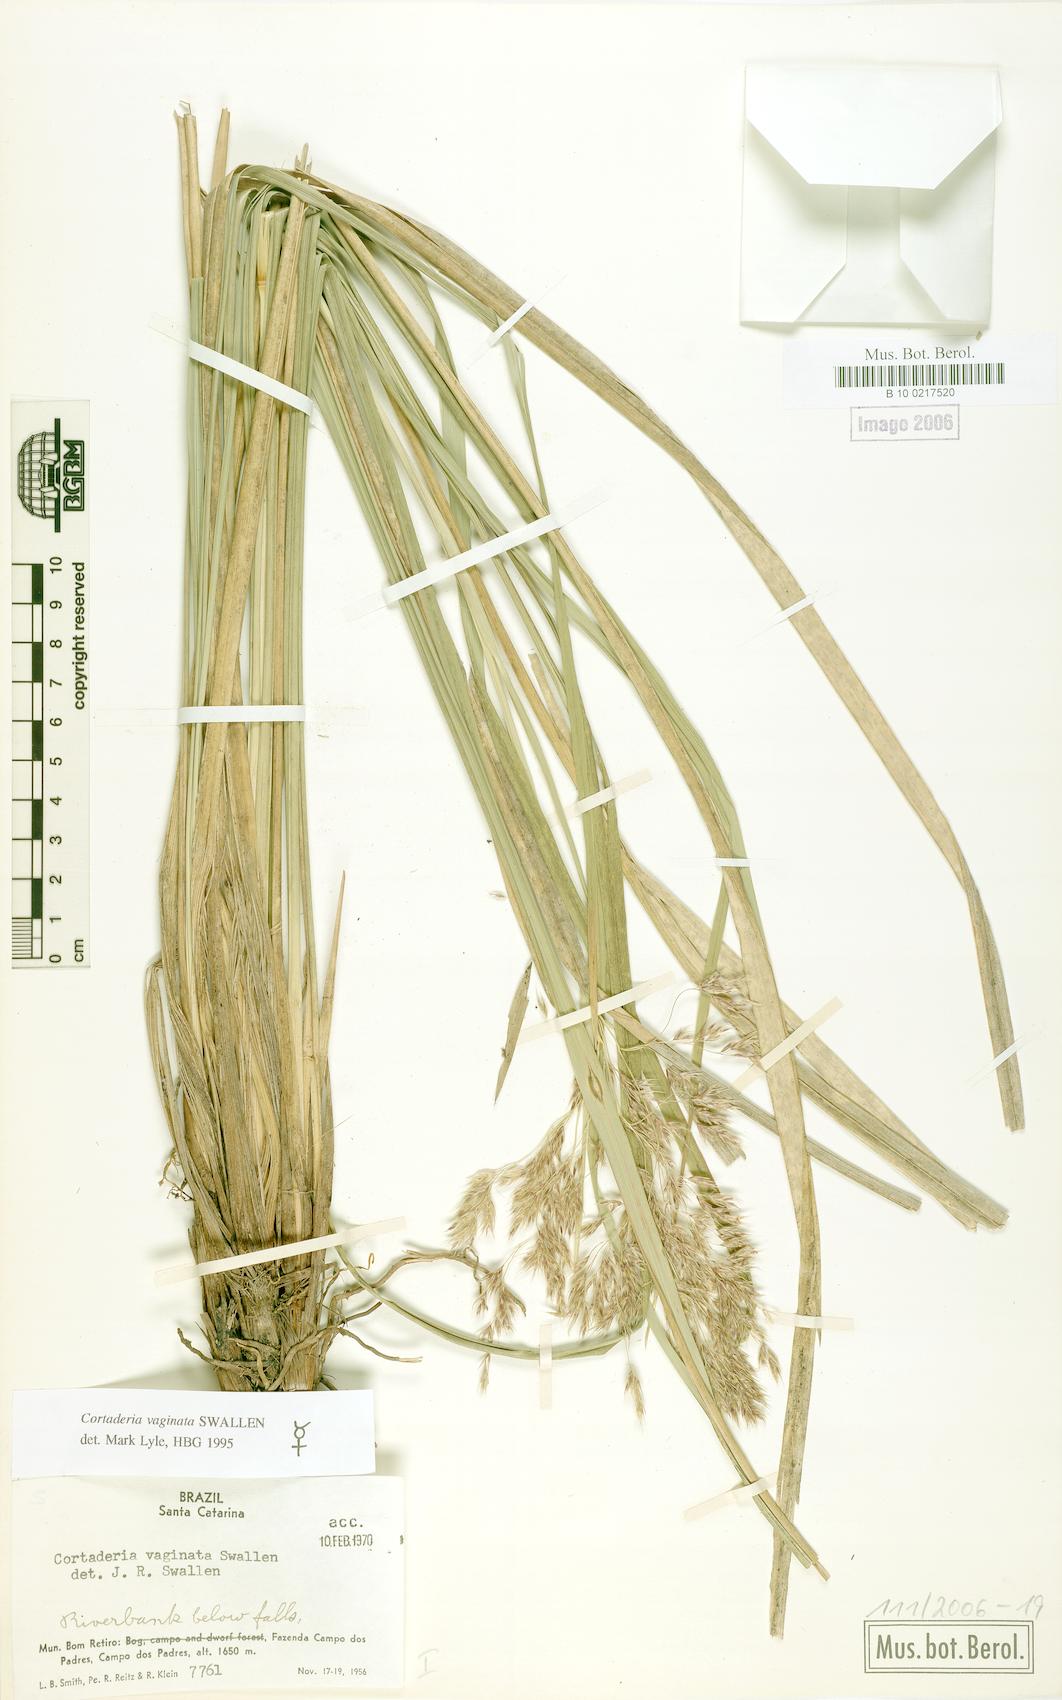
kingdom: Plantae
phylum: Tracheophyta
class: Liliopsida
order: Poales
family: Poaceae
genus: Cortaderia
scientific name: Cortaderia vaginata
